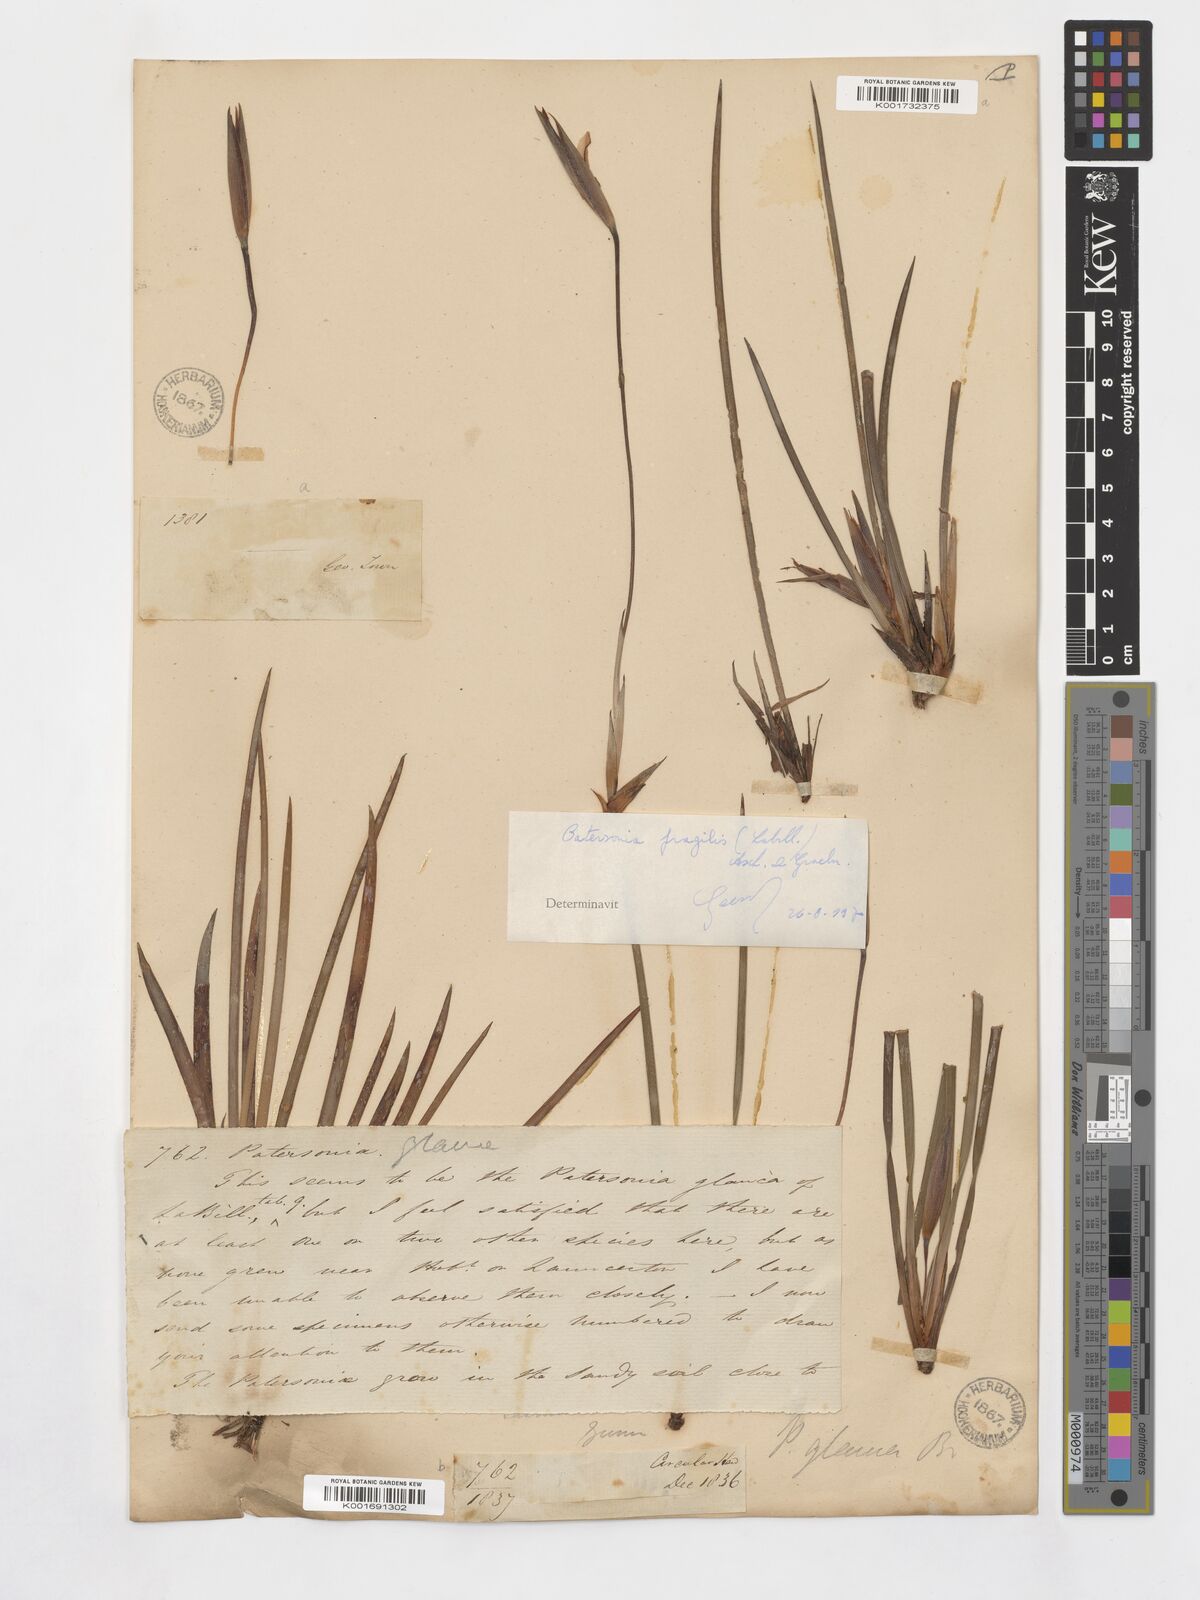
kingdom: Plantae
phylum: Tracheophyta
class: Liliopsida
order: Asparagales
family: Iridaceae
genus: Patersonia
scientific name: Patersonia fragilis
